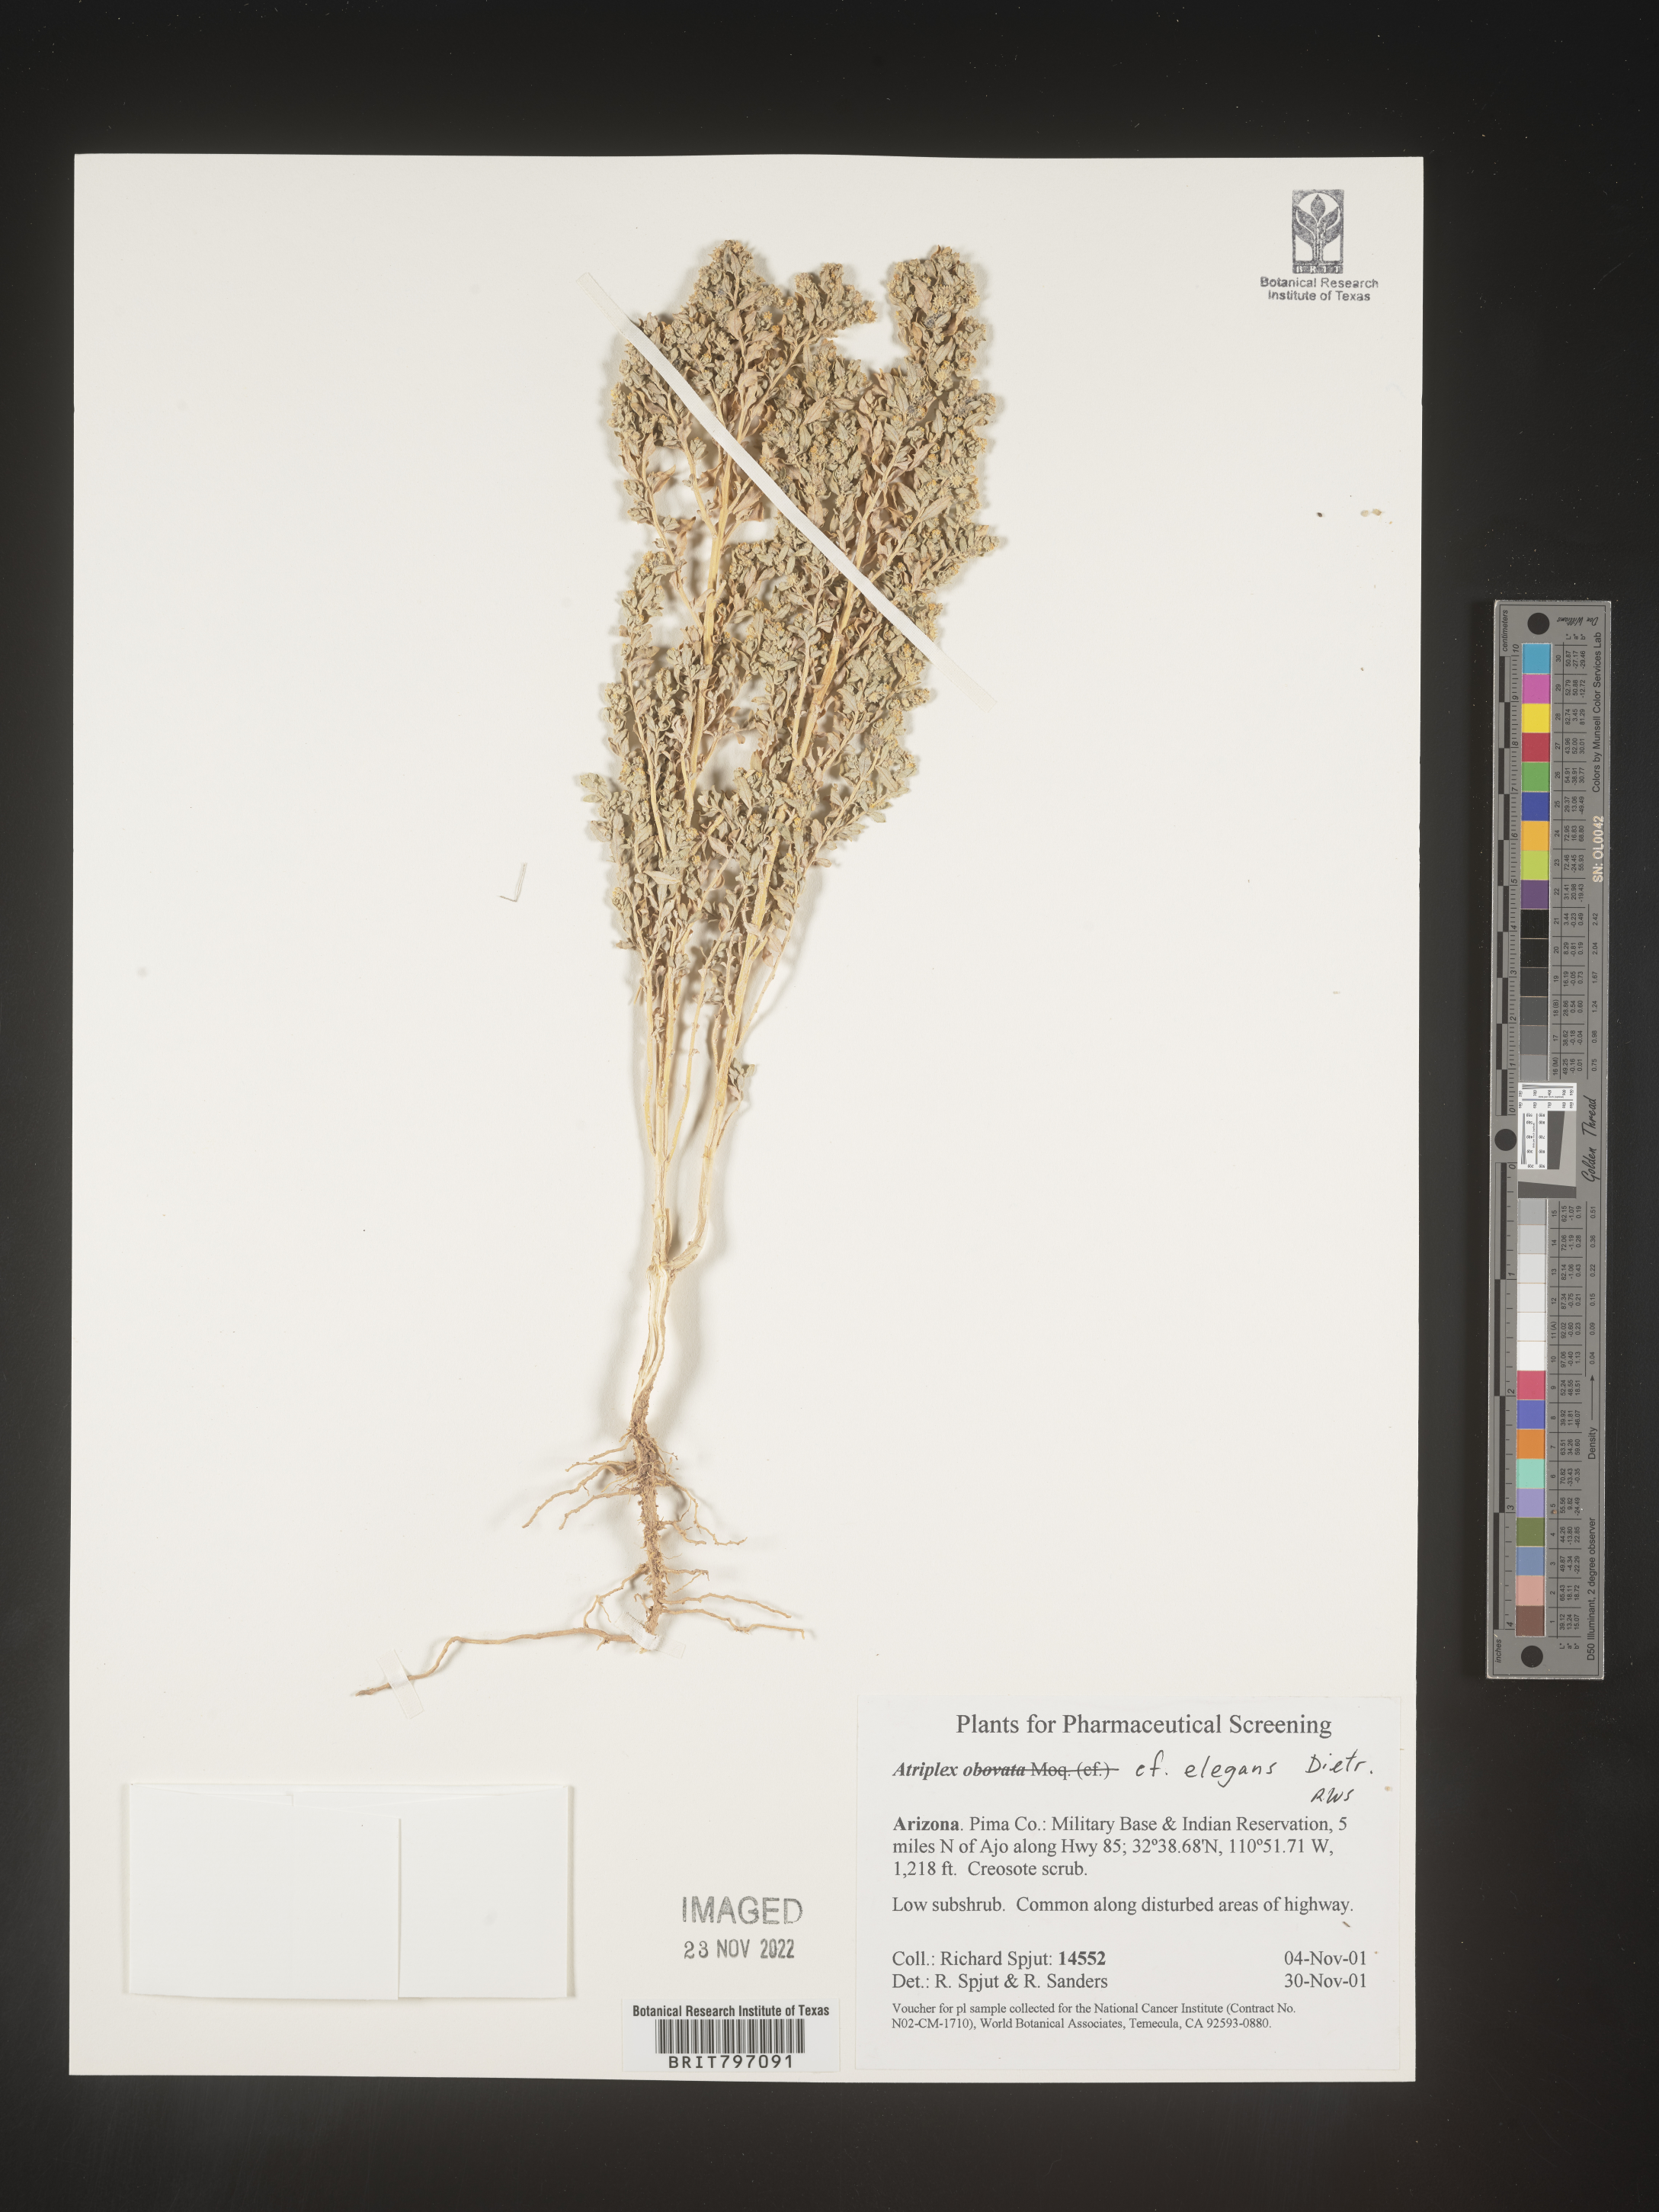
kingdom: Plantae
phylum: Tracheophyta
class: Magnoliopsida
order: Caryophyllales
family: Amaranthaceae
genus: Atriplex
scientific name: Atriplex
